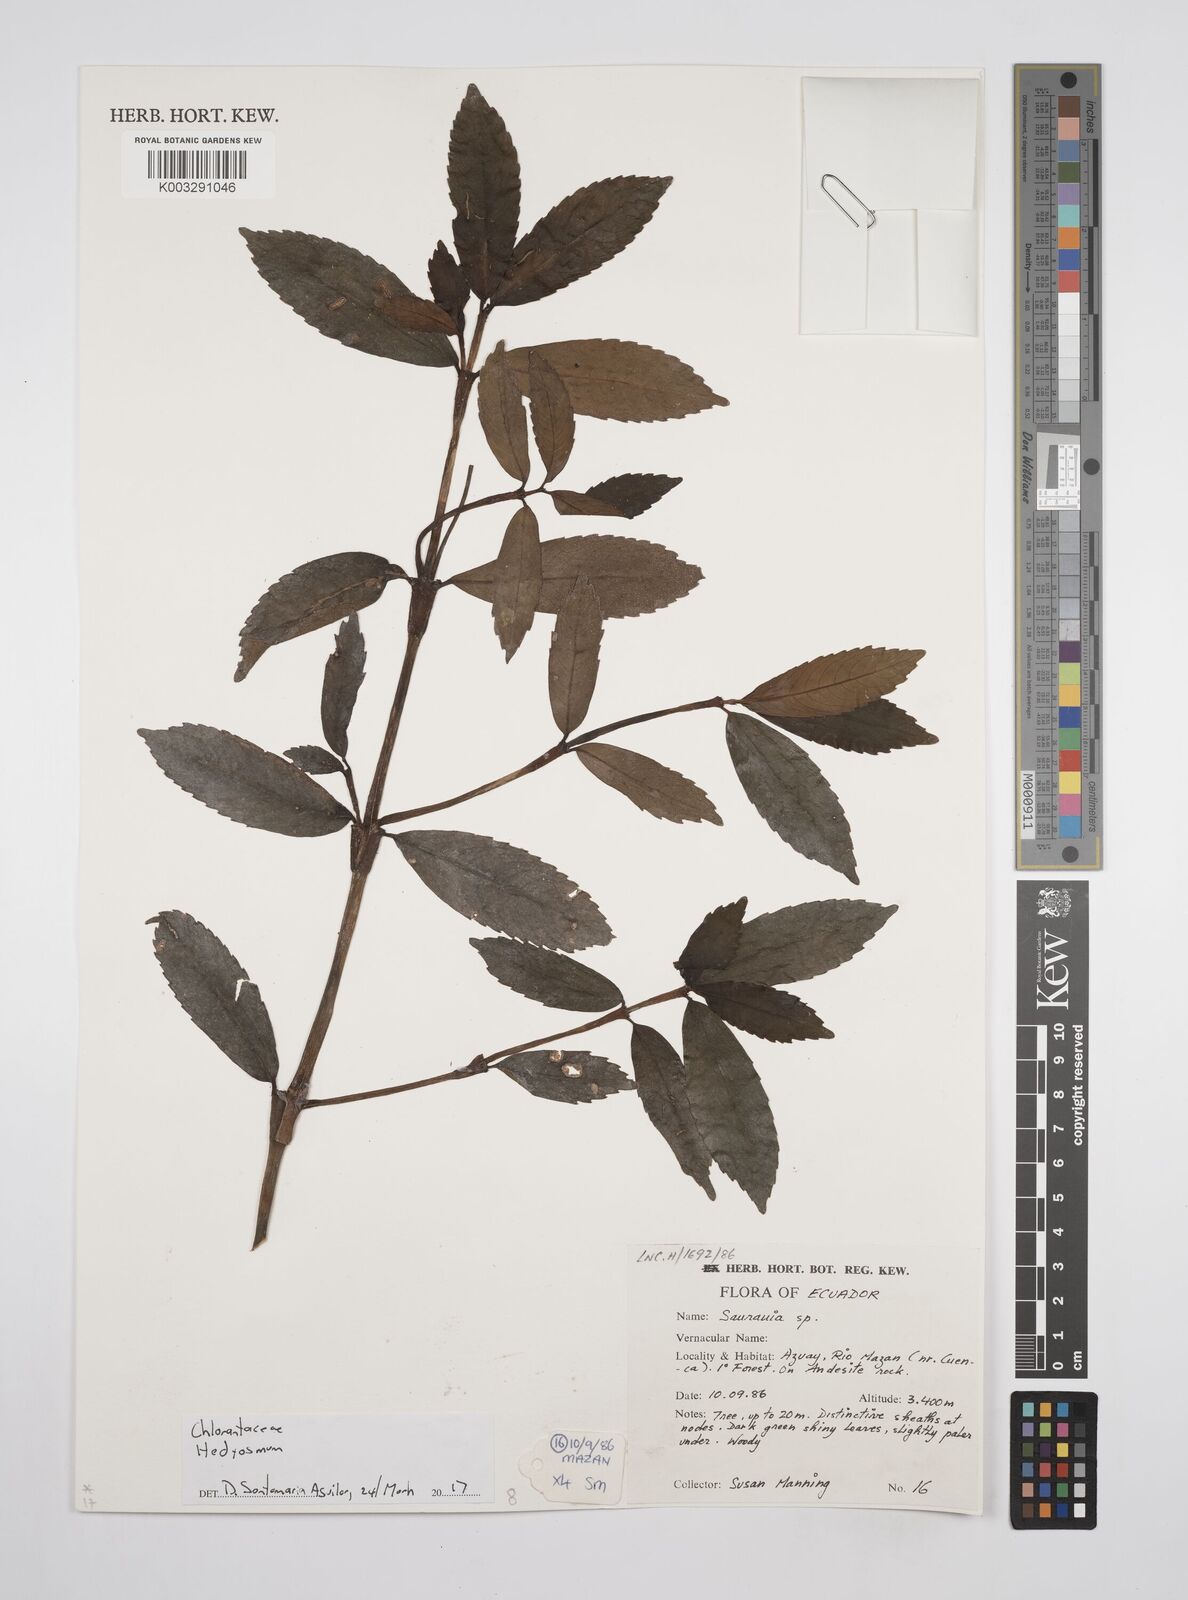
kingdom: Plantae
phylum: Tracheophyta
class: Magnoliopsida
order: Chloranthales
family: Chloranthaceae
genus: Hedyosmum
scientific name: Hedyosmum
